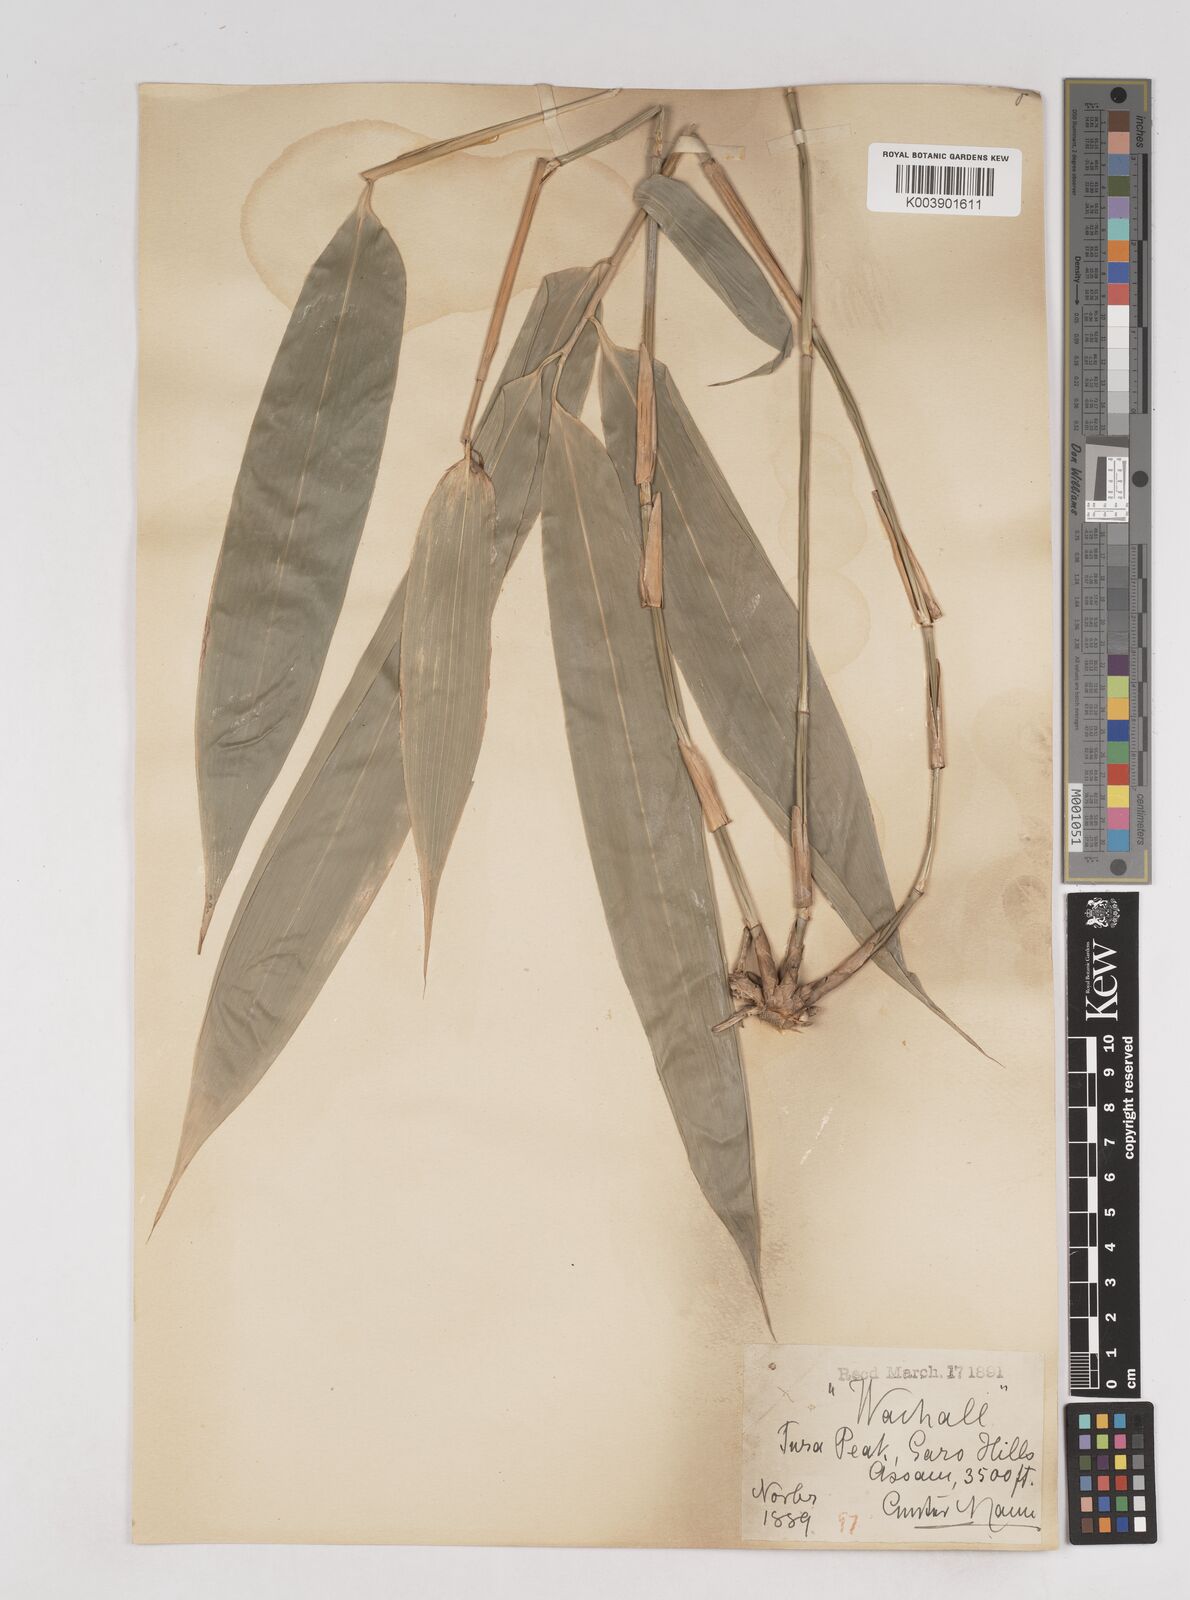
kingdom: Plantae
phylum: Tracheophyta
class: Liliopsida
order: Poales
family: Poaceae
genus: Pseudostachyum
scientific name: Pseudostachyum polymorphum
